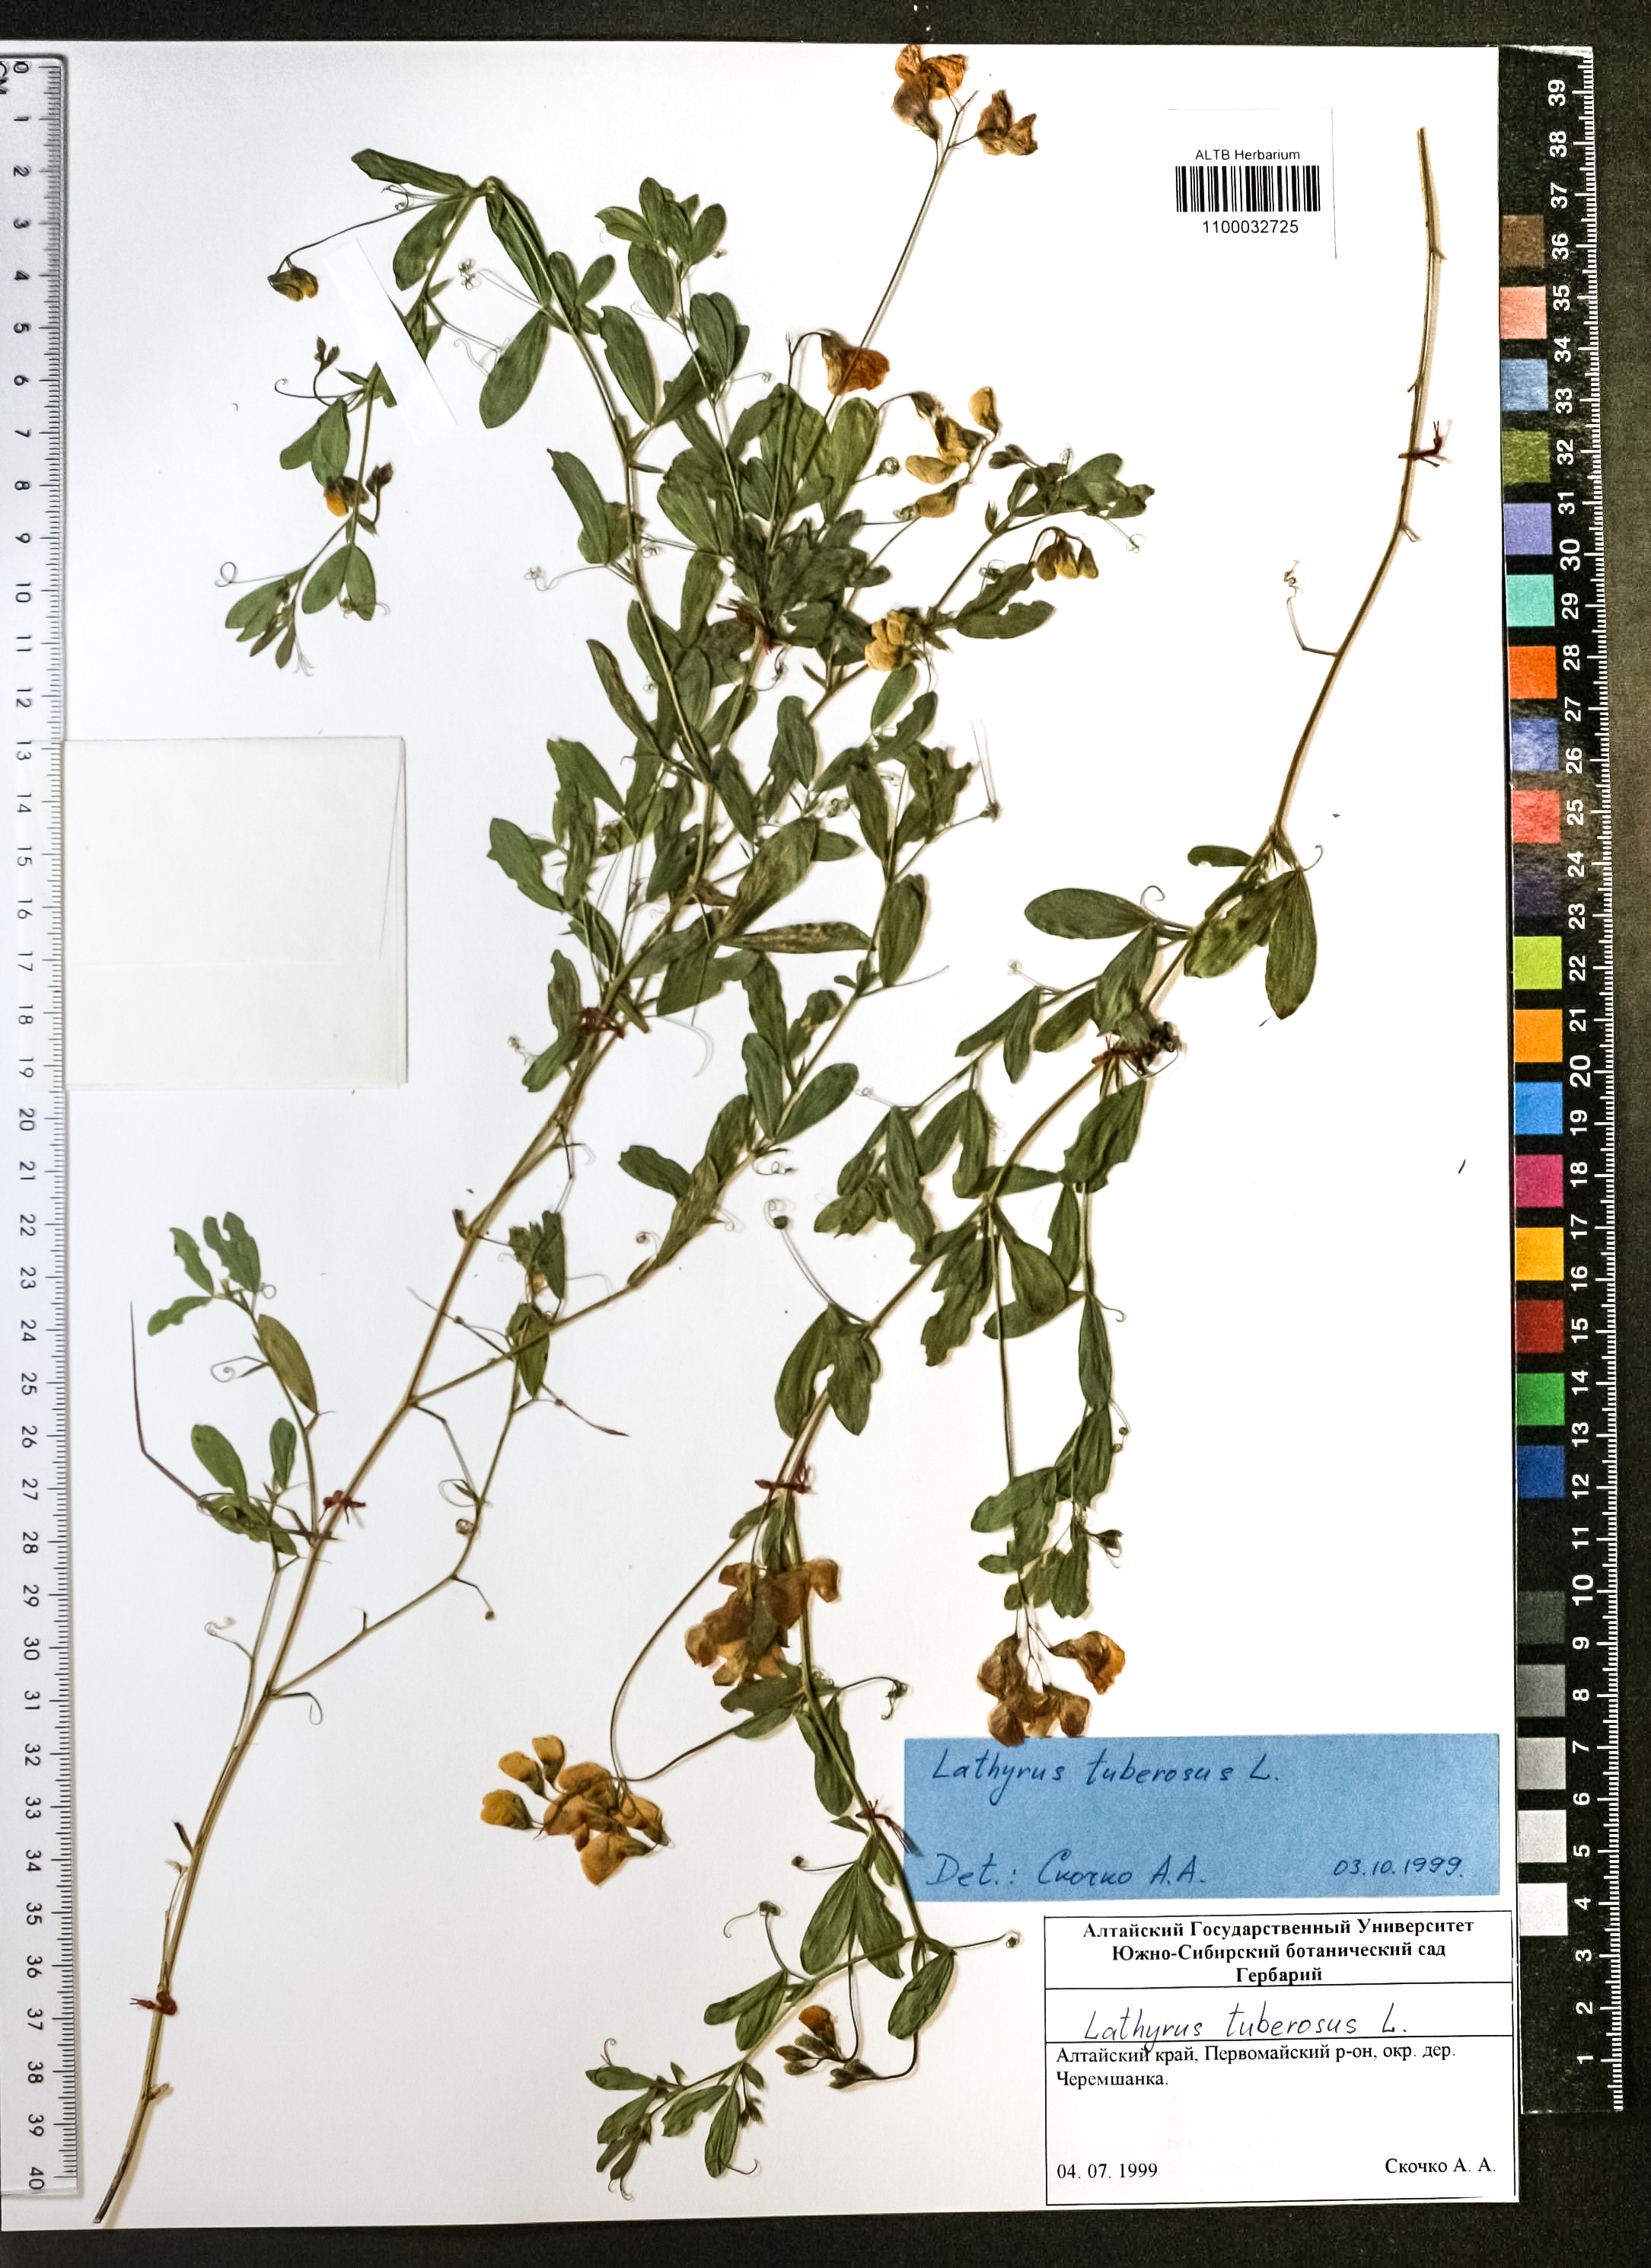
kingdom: Plantae
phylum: Tracheophyta
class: Magnoliopsida
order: Fabales
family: Fabaceae
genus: Lathyrus
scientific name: Lathyrus tuberosus
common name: Tuberous pea
